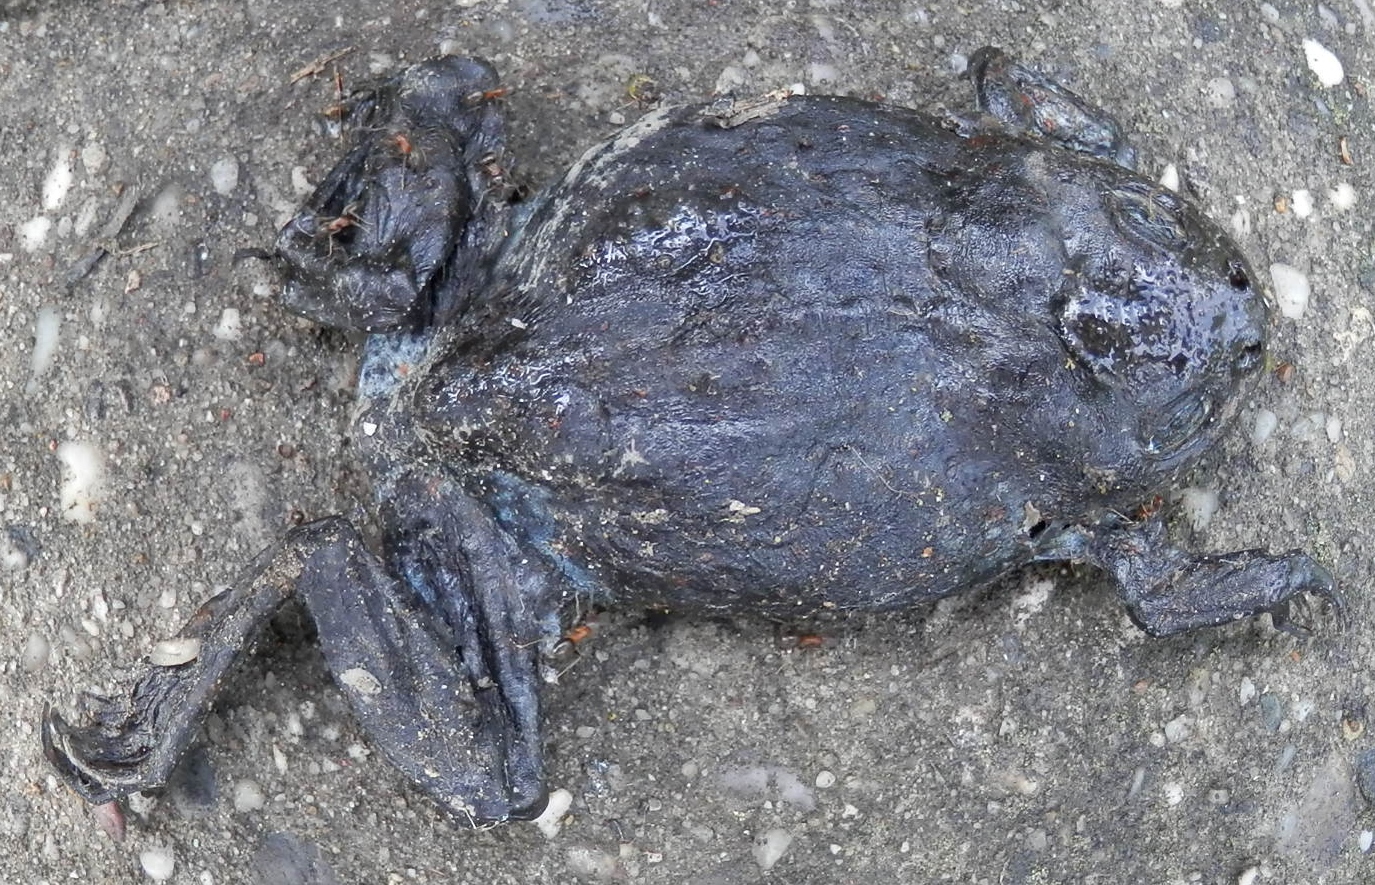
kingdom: Animalia
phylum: Chordata
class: Amphibia
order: Anura
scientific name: Anura
